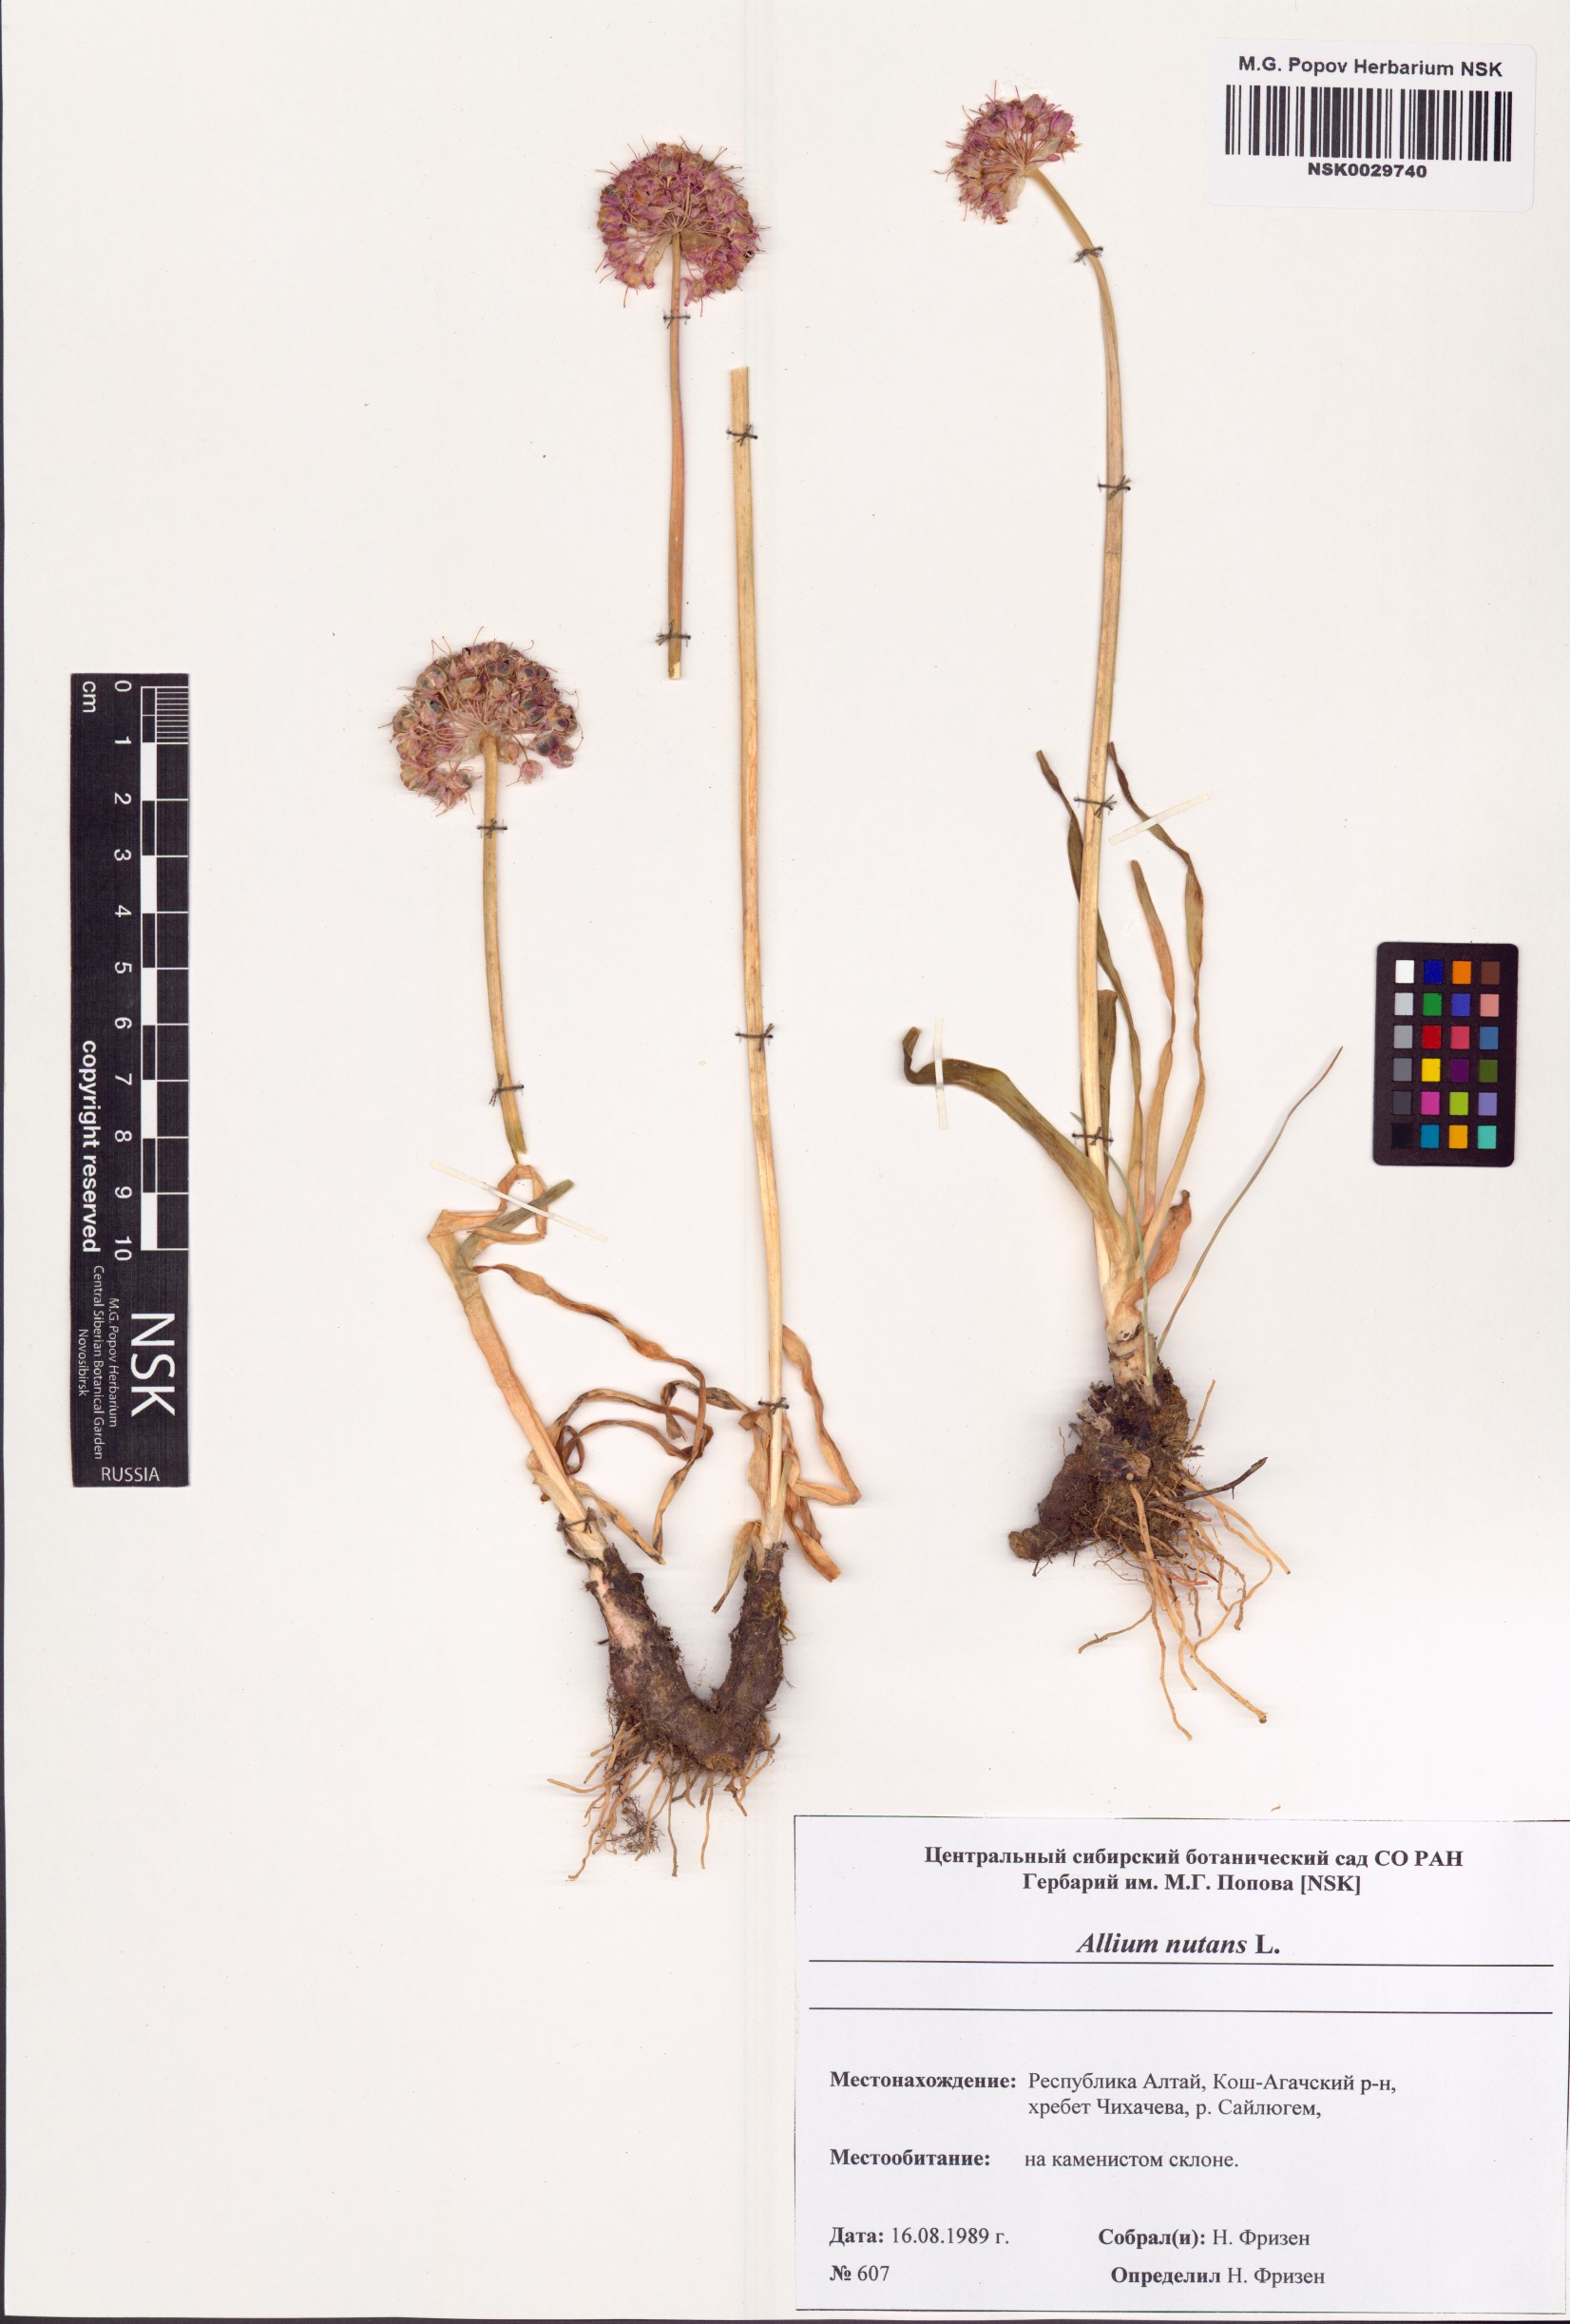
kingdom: Plantae
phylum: Tracheophyta
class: Liliopsida
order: Asparagales
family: Amaryllidaceae
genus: Allium
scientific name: Allium nutans
